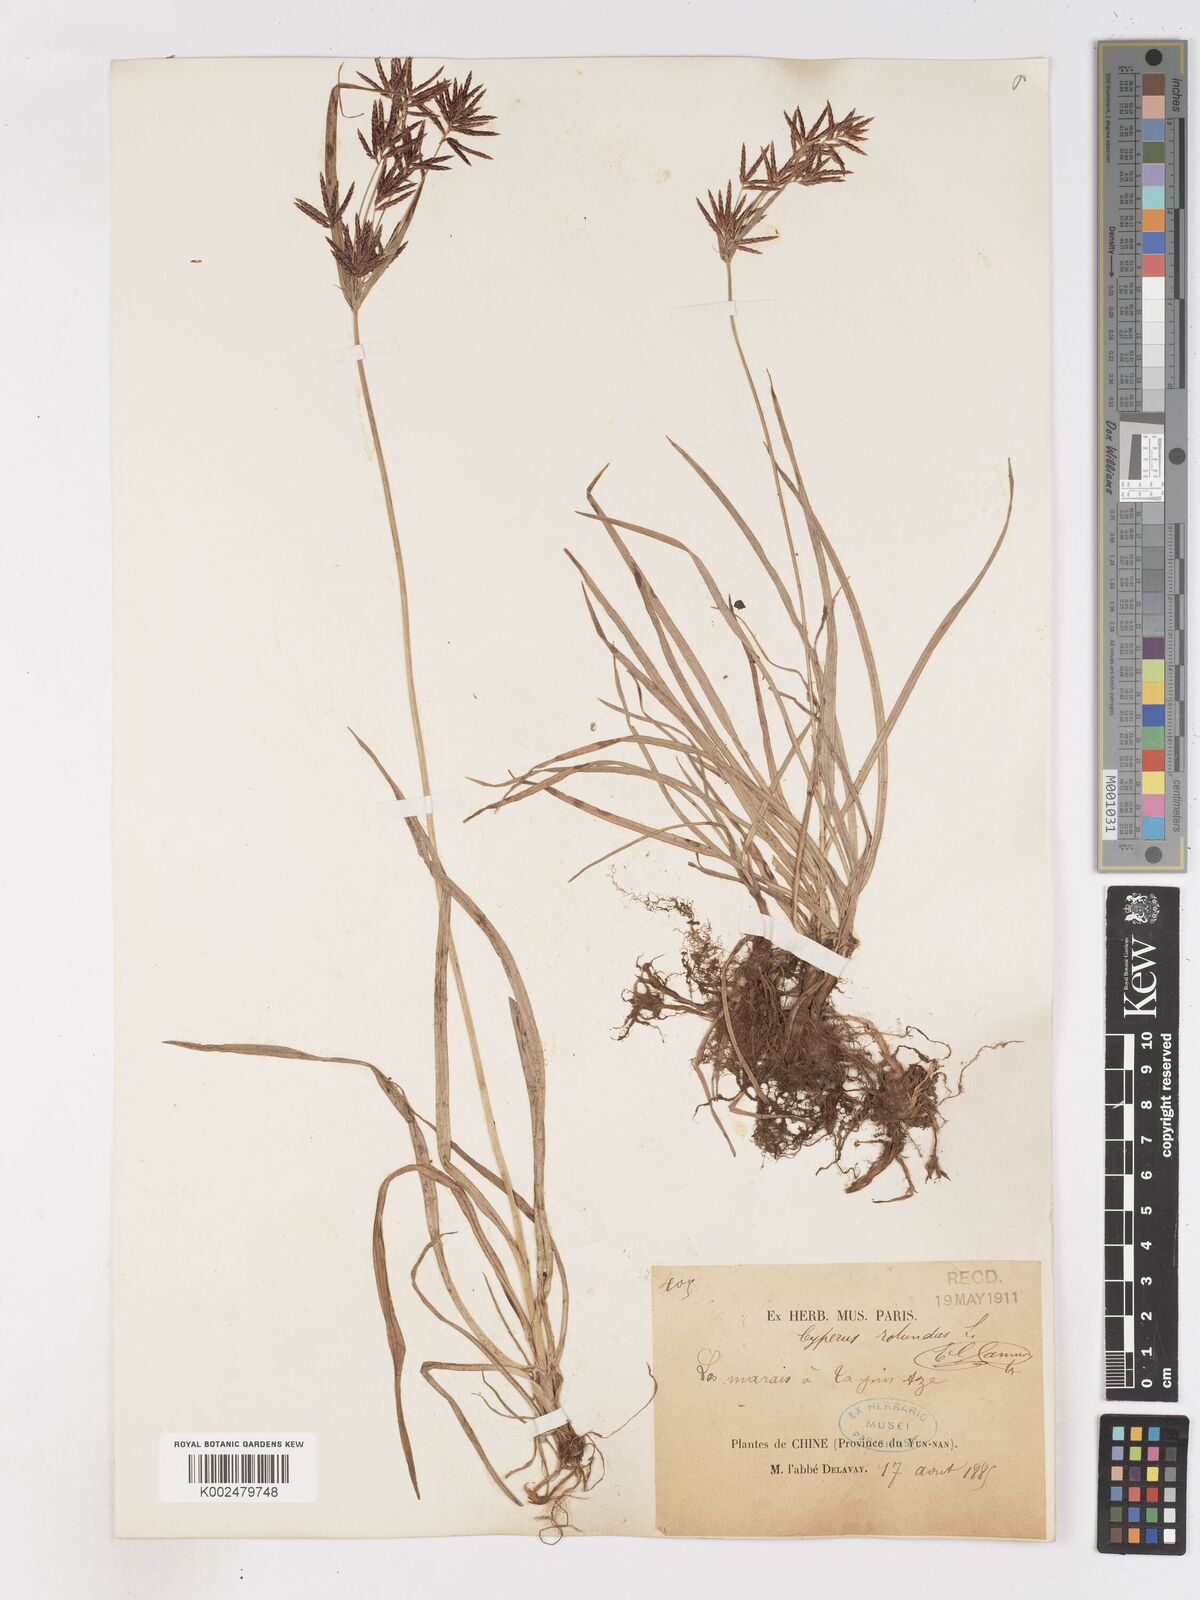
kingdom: Plantae
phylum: Tracheophyta
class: Liliopsida
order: Poales
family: Cyperaceae
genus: Cyperus
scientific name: Cyperus rotundus
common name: Nutgrass
